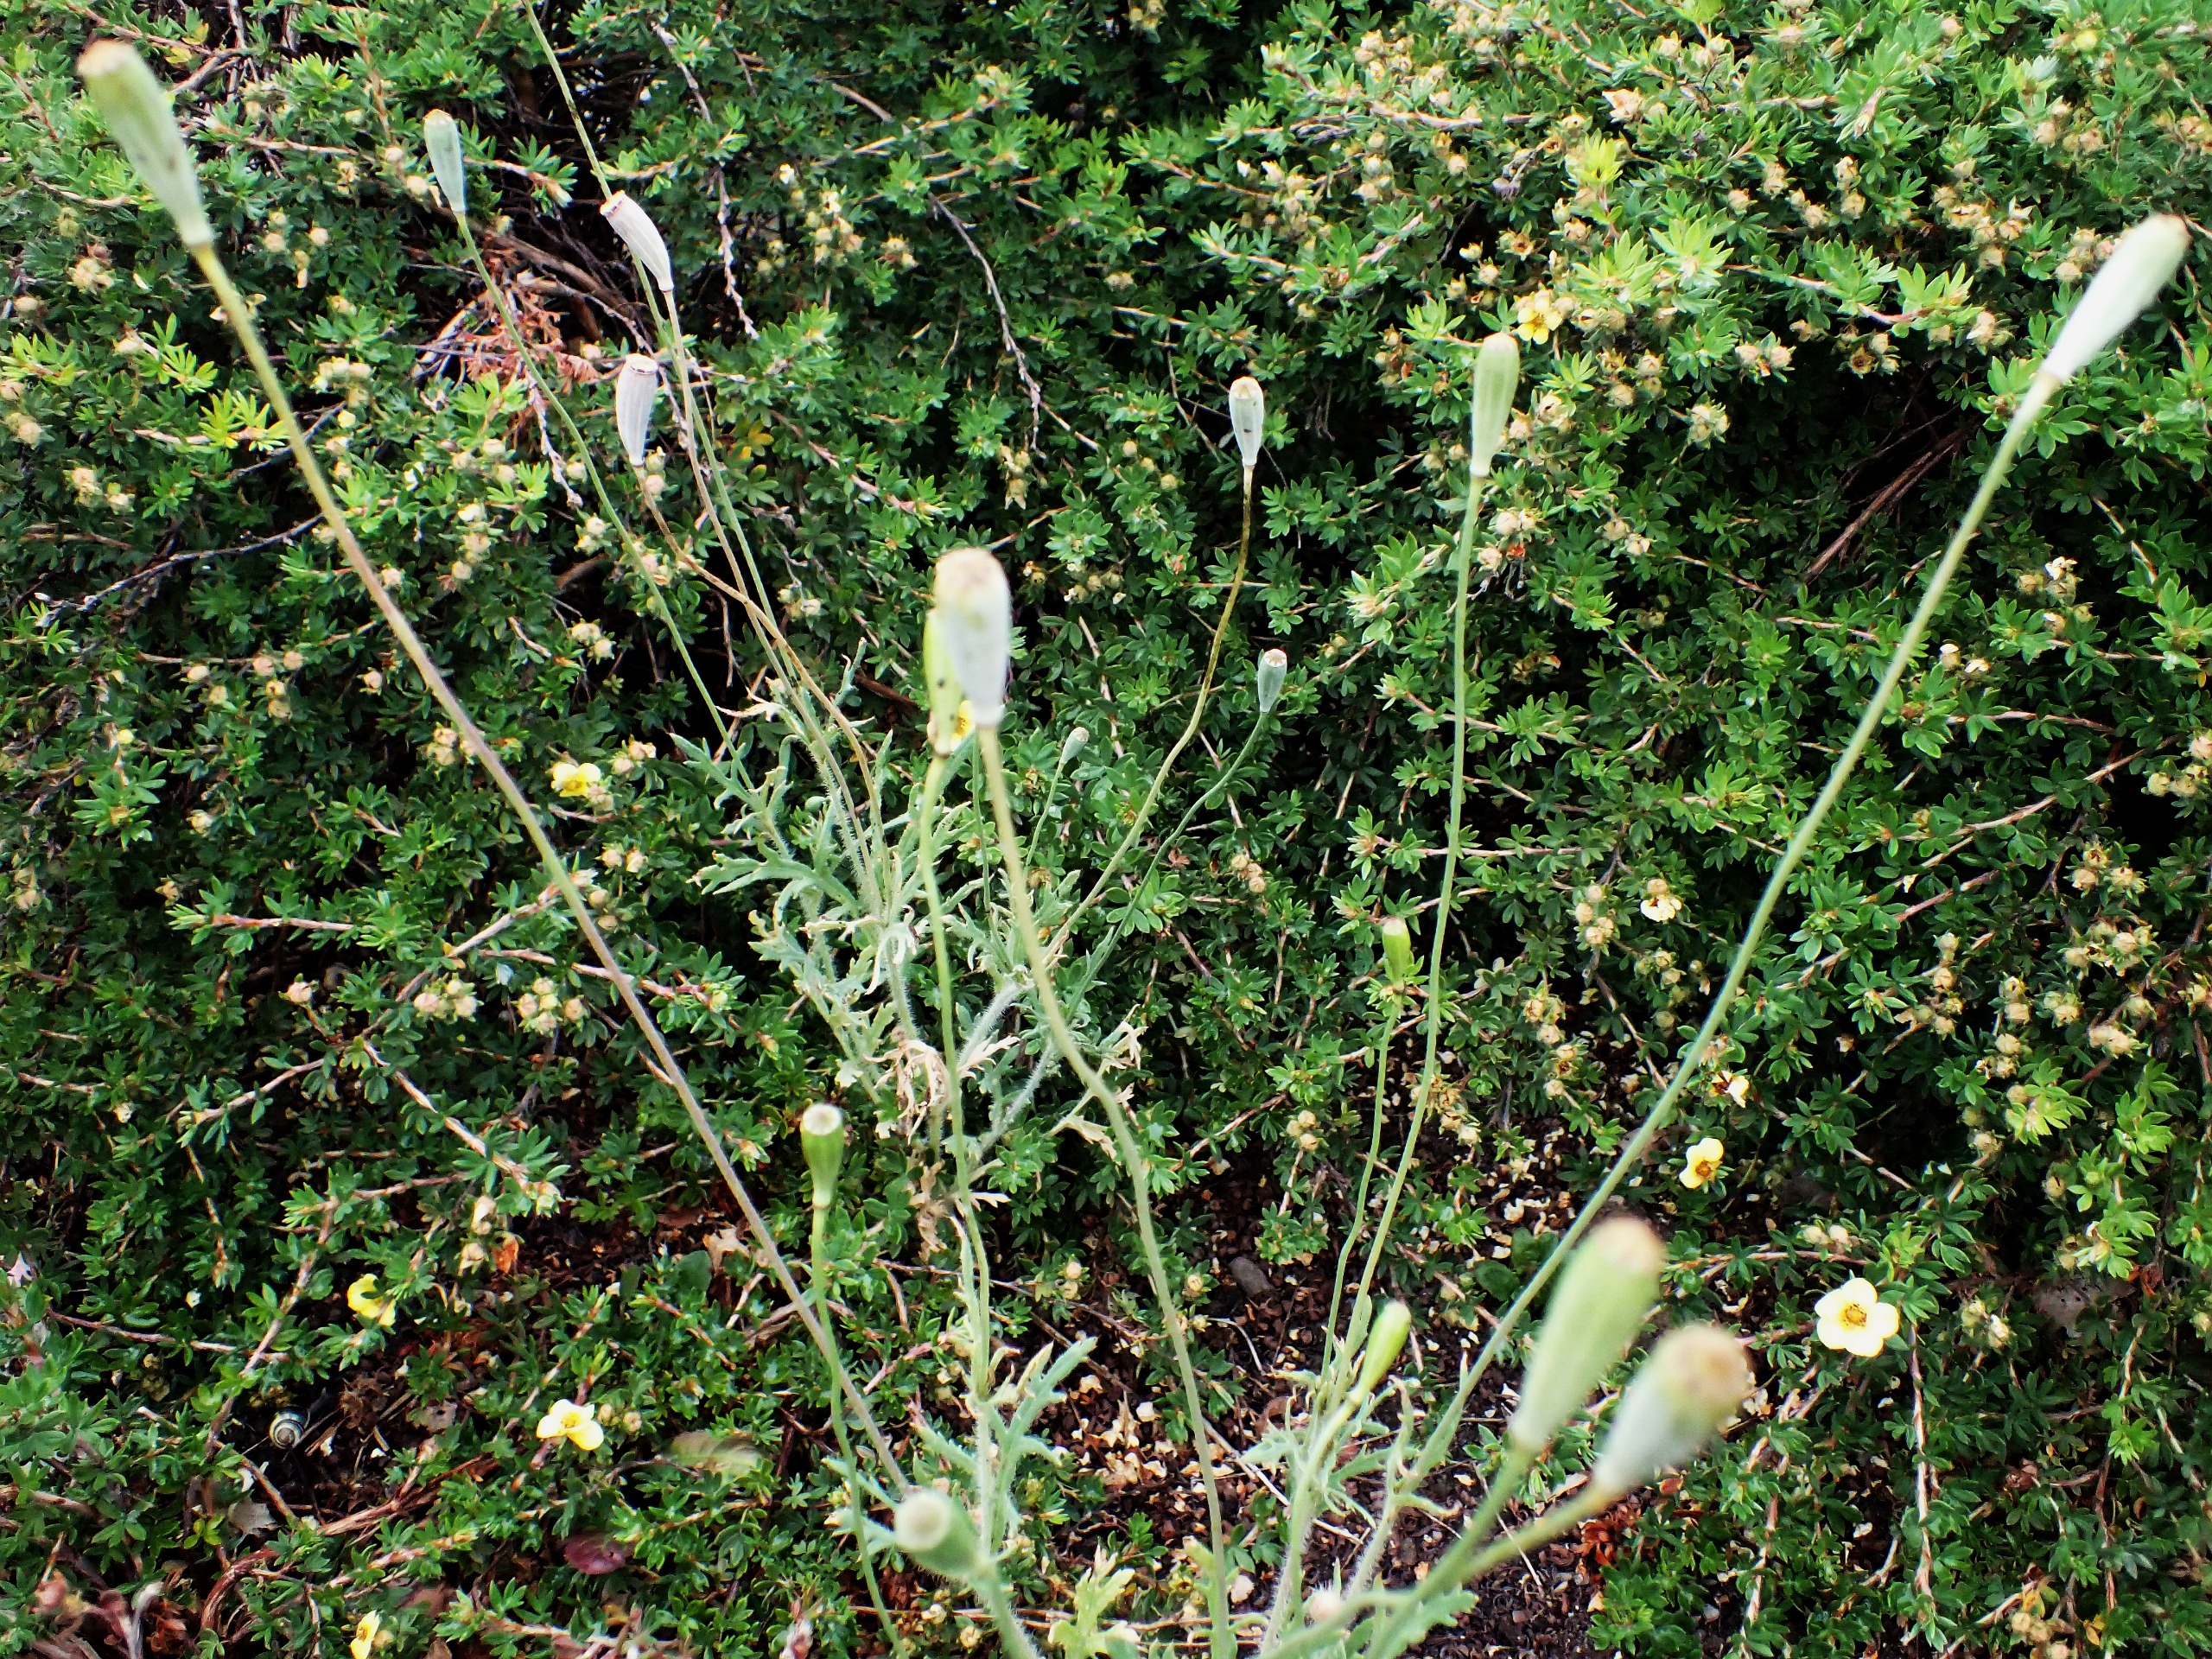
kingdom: Plantae
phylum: Tracheophyta
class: Magnoliopsida
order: Ranunculales
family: Papaveraceae
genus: Papaver
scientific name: Papaver dubium
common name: Gærde-valmue
